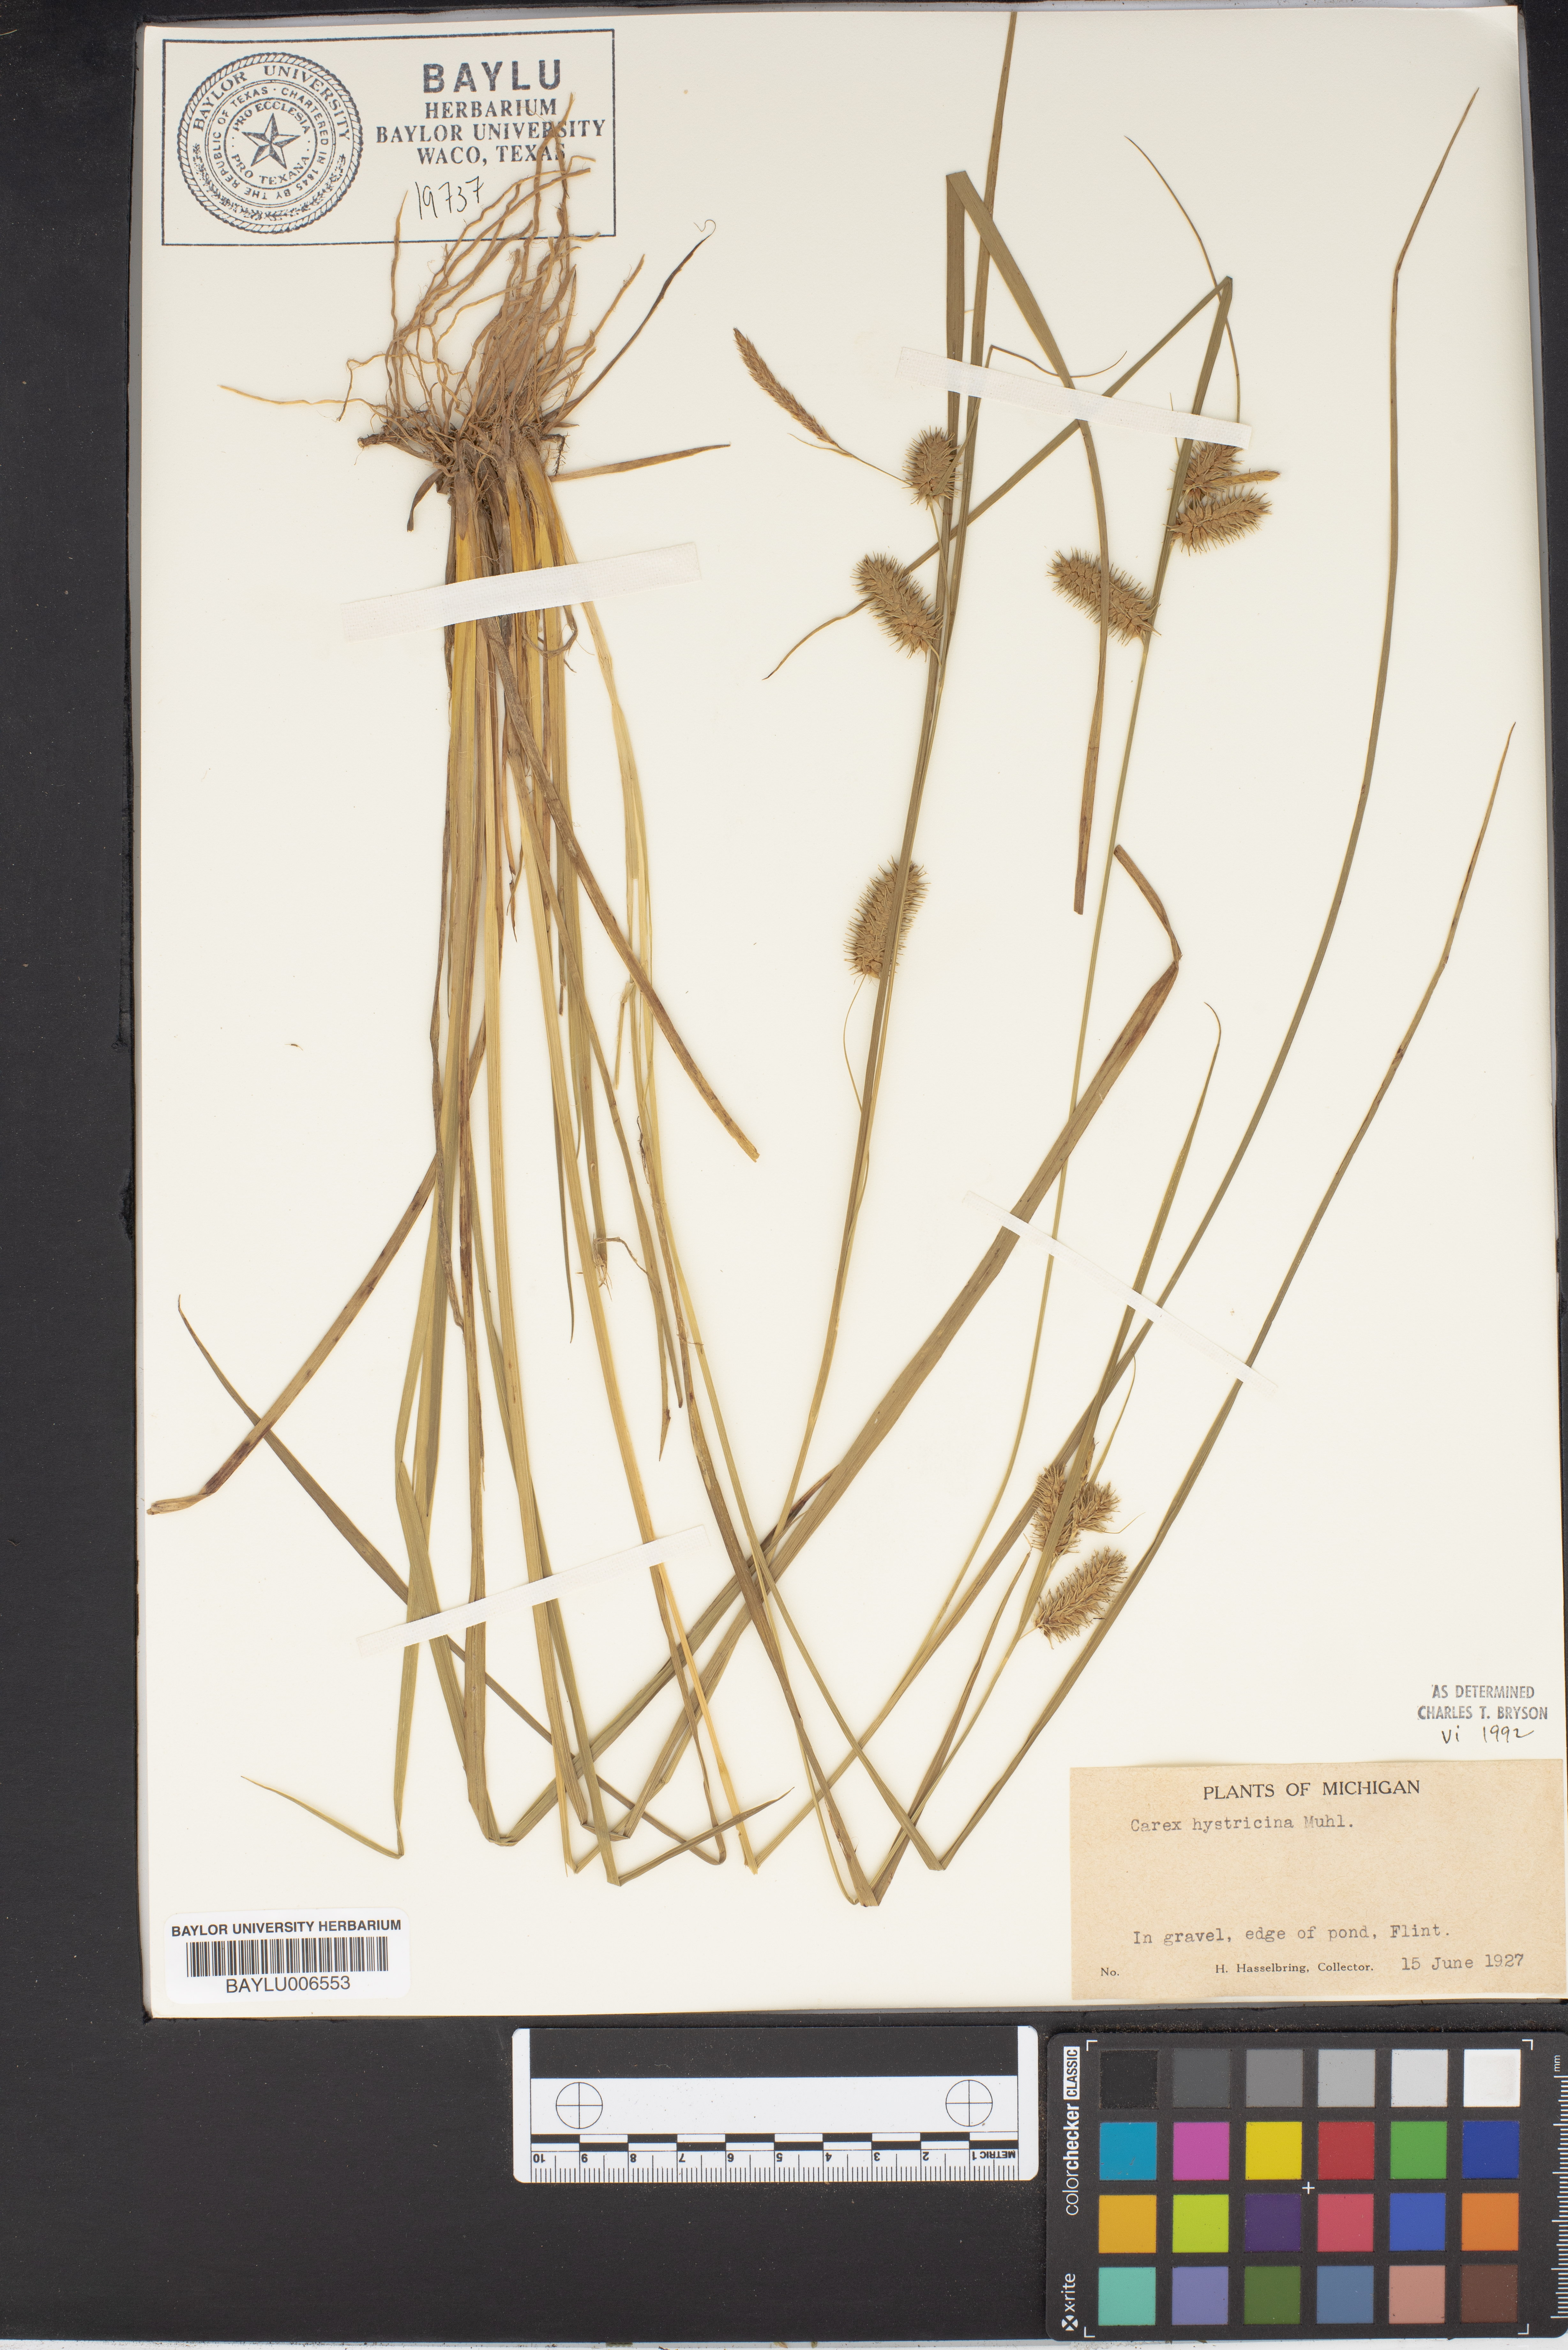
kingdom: Plantae
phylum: Tracheophyta
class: Liliopsida
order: Poales
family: Cyperaceae
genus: Carex
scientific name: Carex hystericina
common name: Bottlebrush sedge
